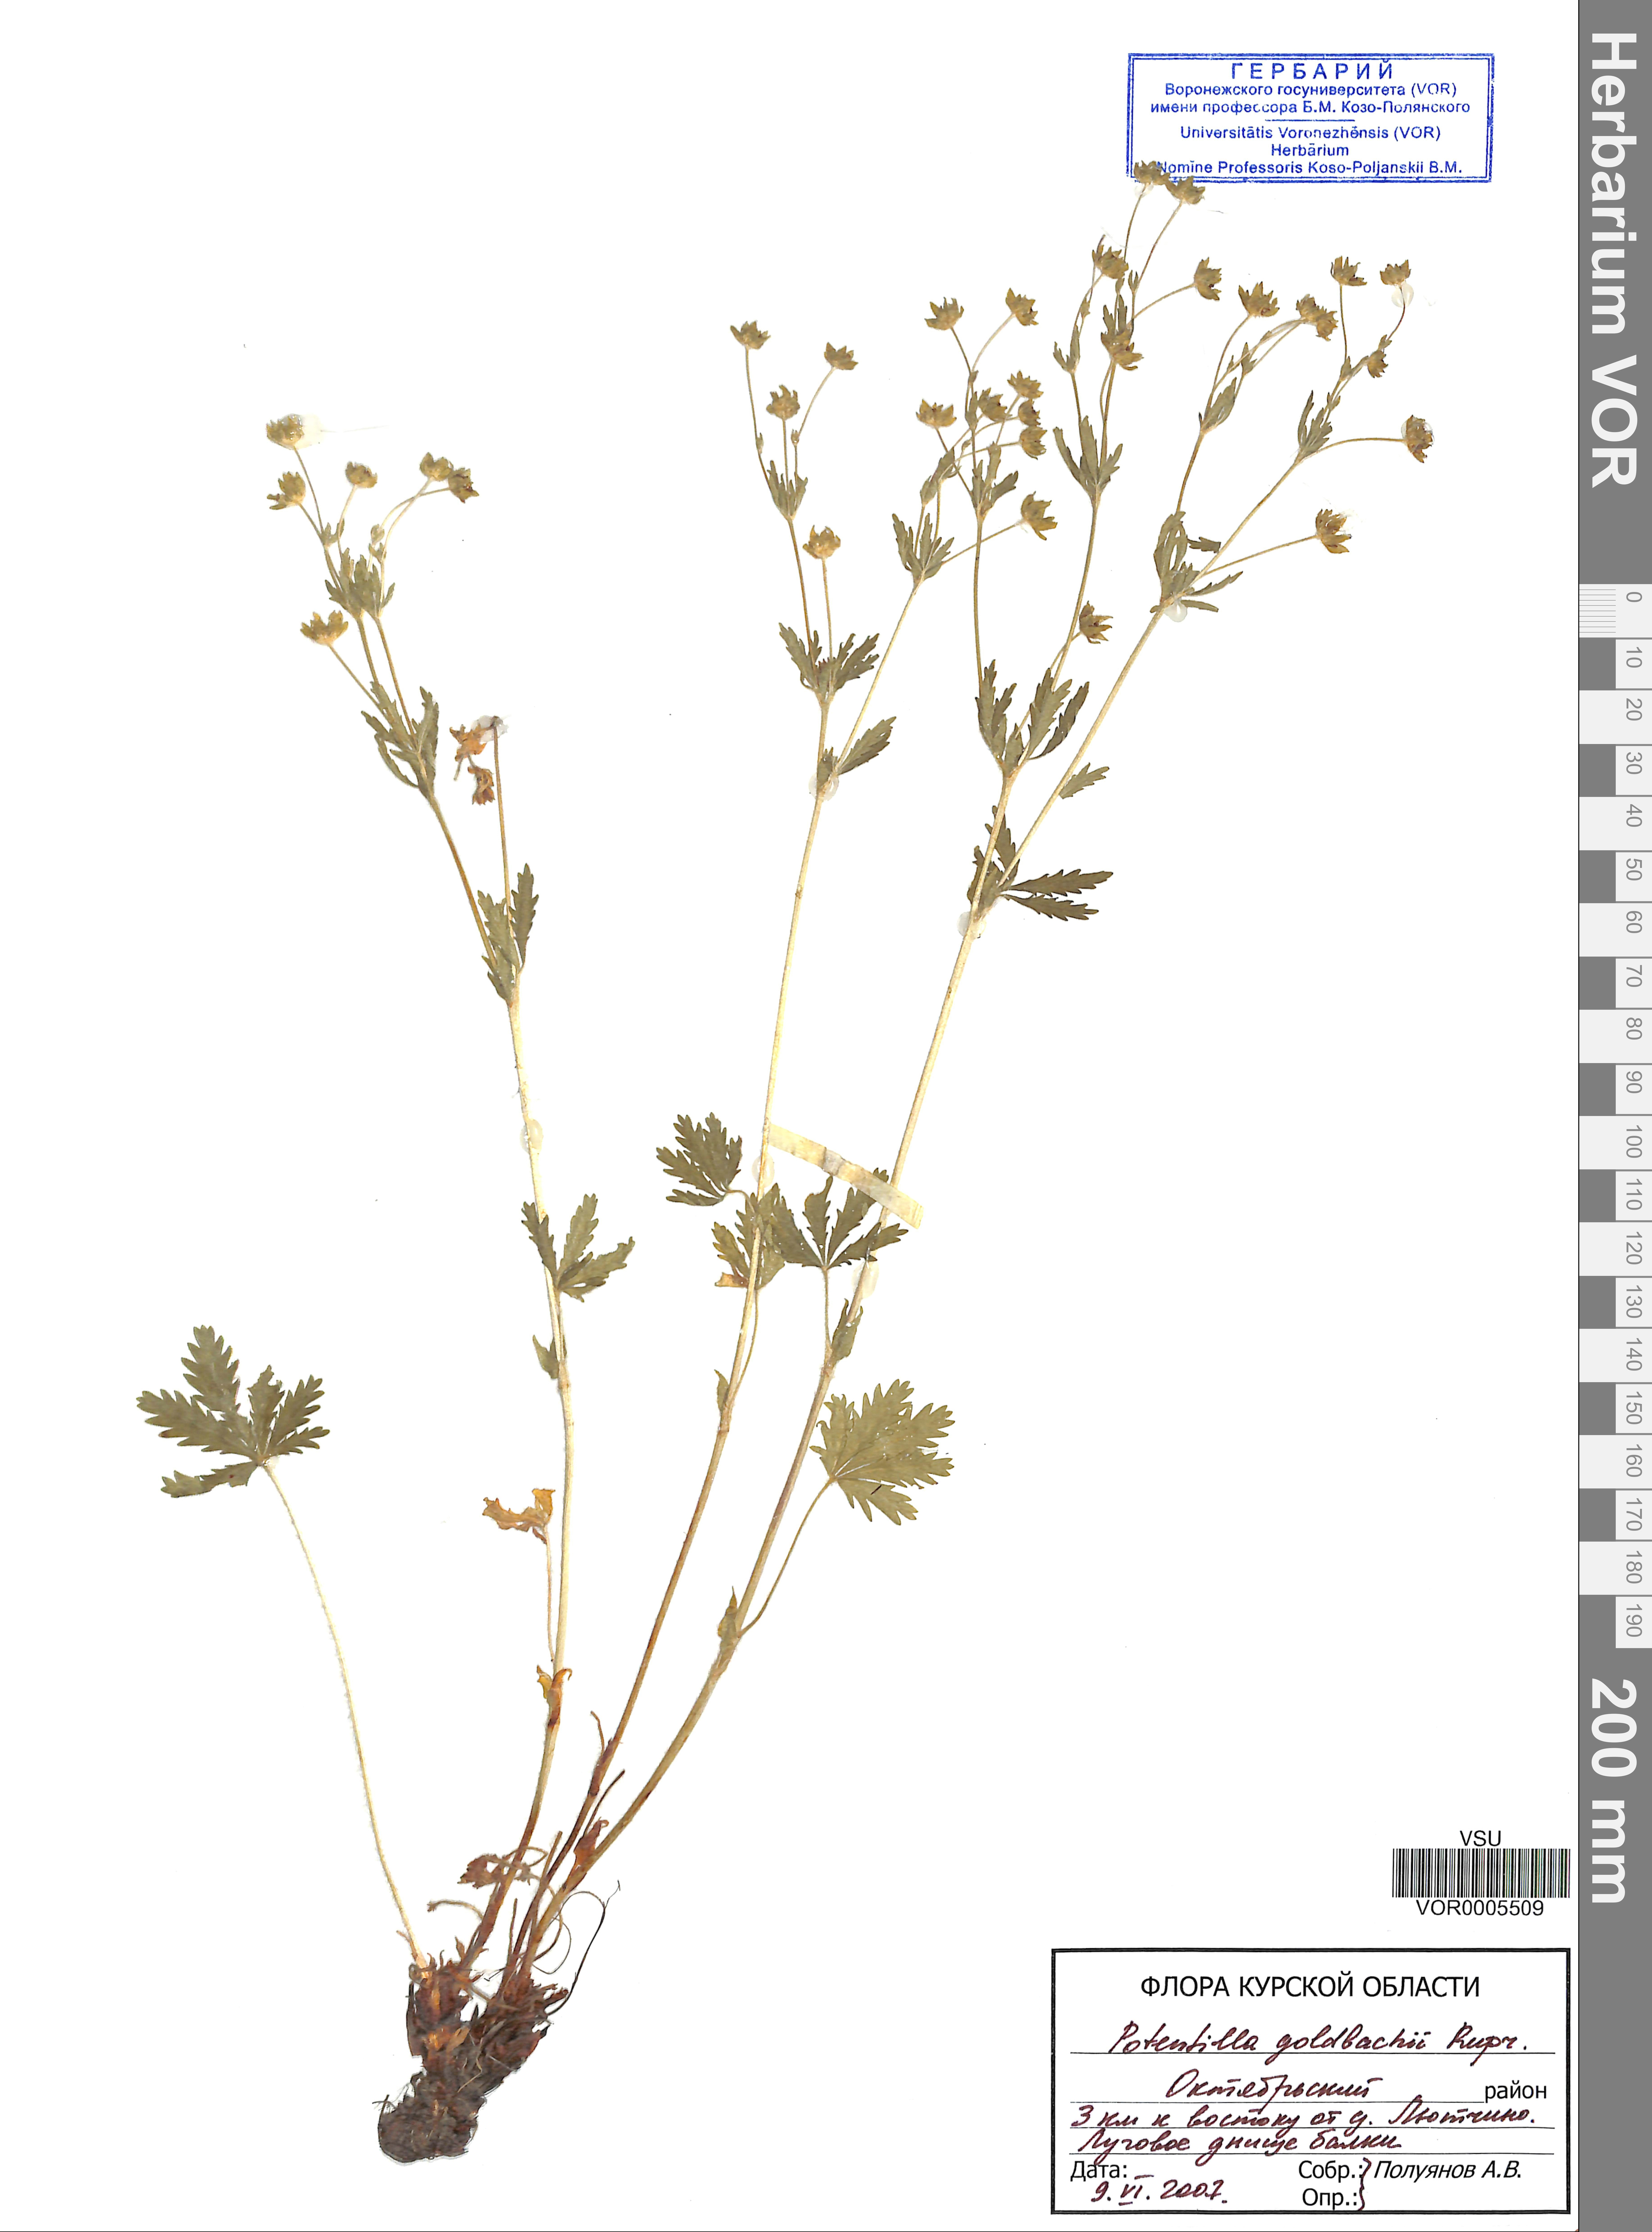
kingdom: Plantae
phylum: Tracheophyta
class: Magnoliopsida
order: Rosales
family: Rosaceae
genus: Potentilla
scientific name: Potentilla thuringiaca
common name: European cinquefoil
